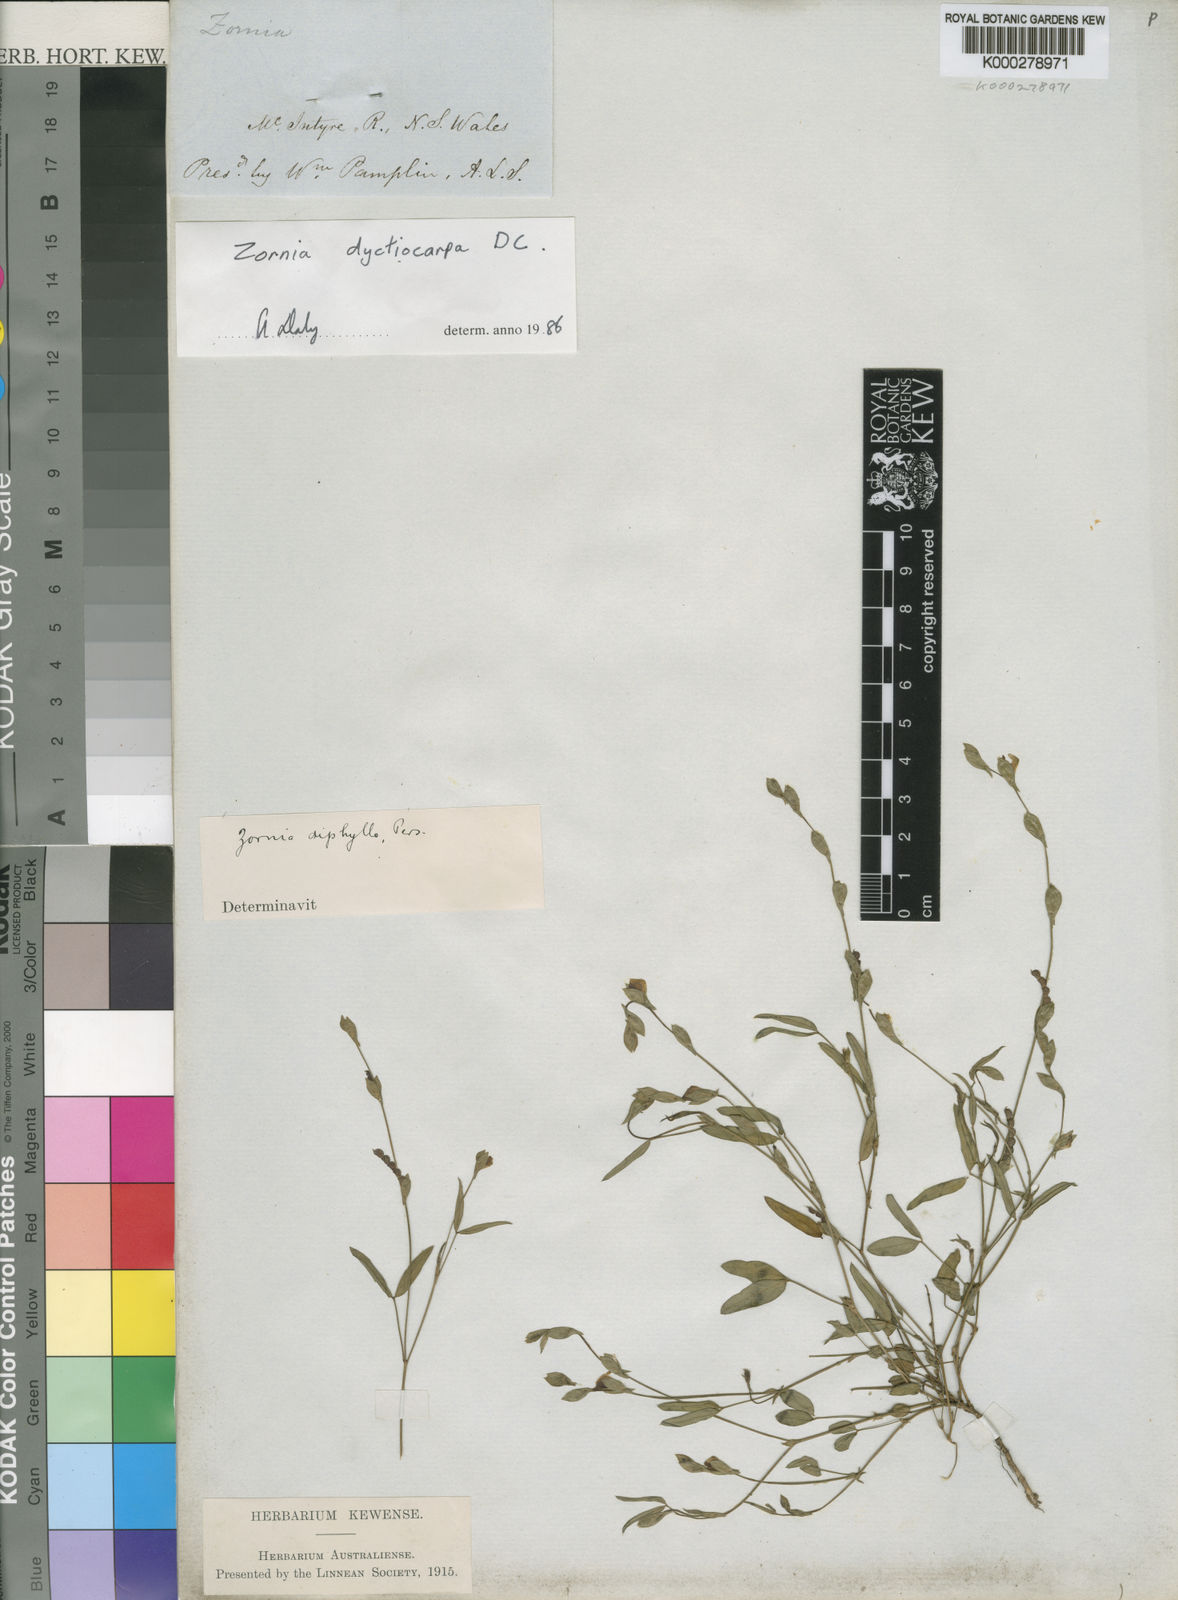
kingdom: Plantae
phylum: Tracheophyta
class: Magnoliopsida
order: Fabales
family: Fabaceae
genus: Zornia
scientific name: Zornia diphylla
